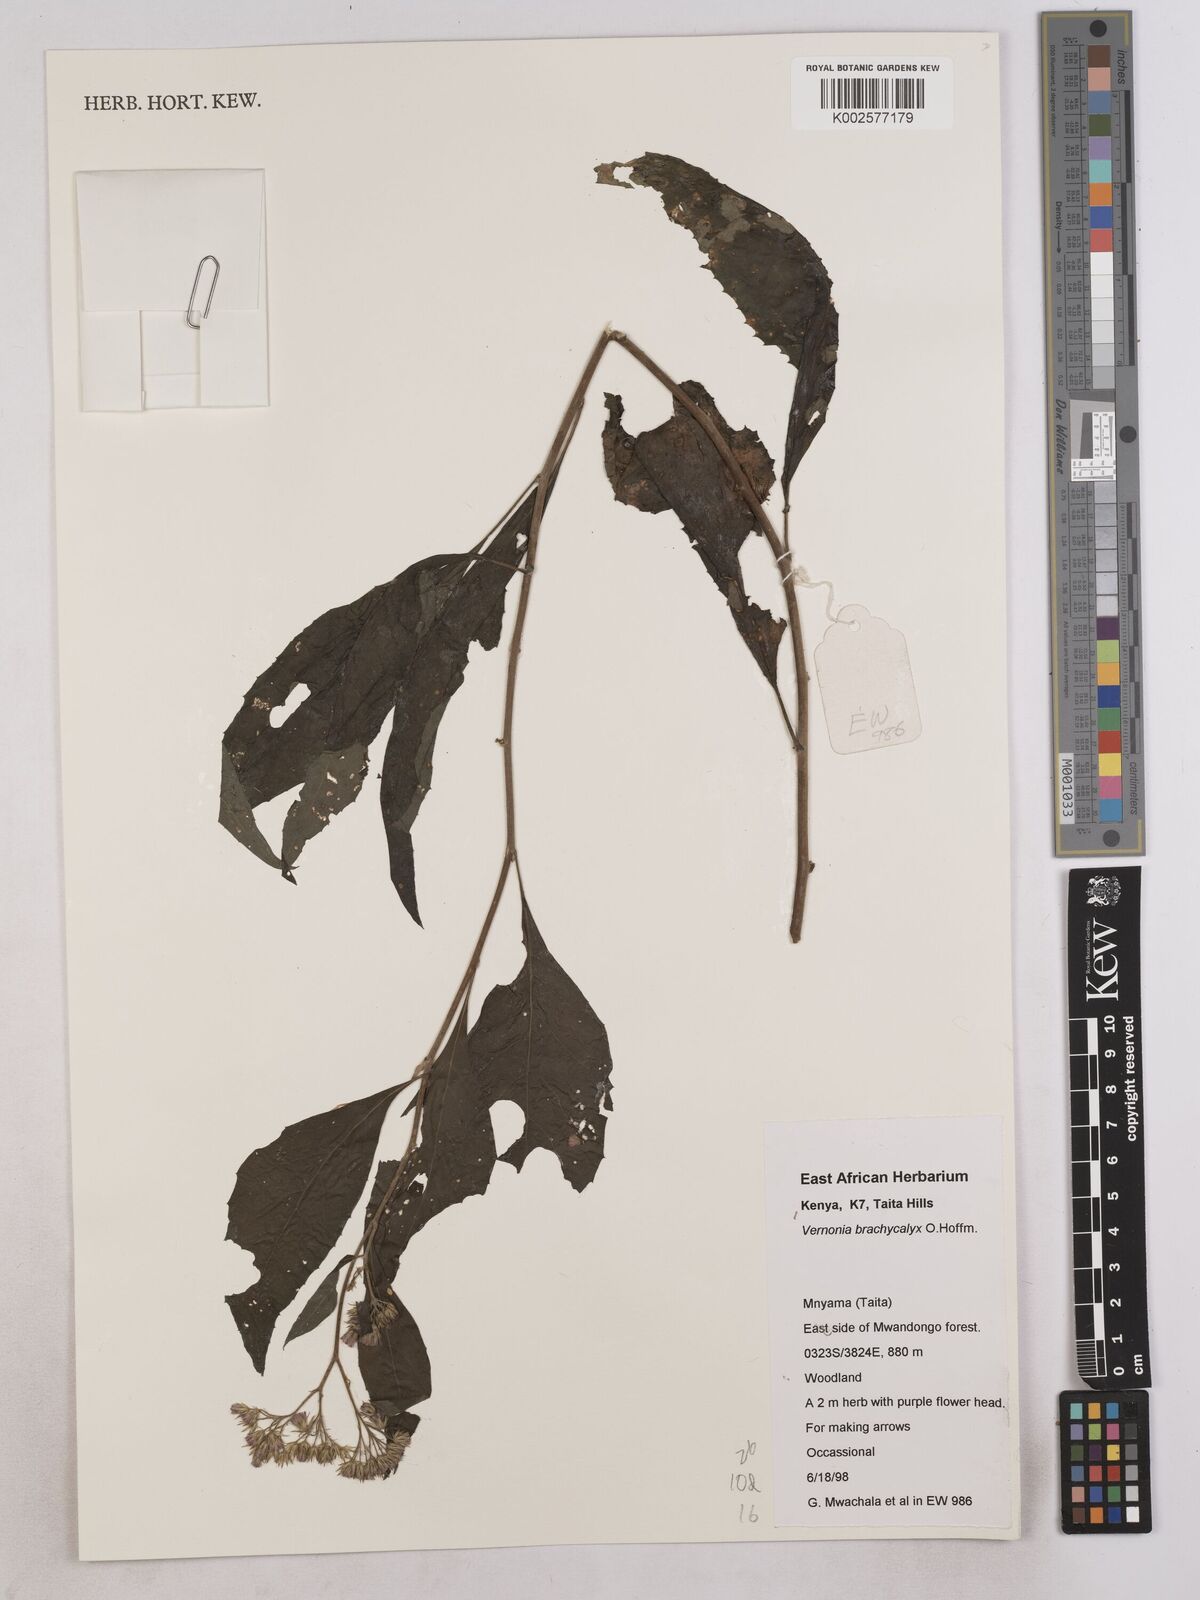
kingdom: Plantae
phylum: Tracheophyta
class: Magnoliopsida
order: Asterales
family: Asteraceae
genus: Hoffmannanthus
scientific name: Hoffmannanthus abbotianus
